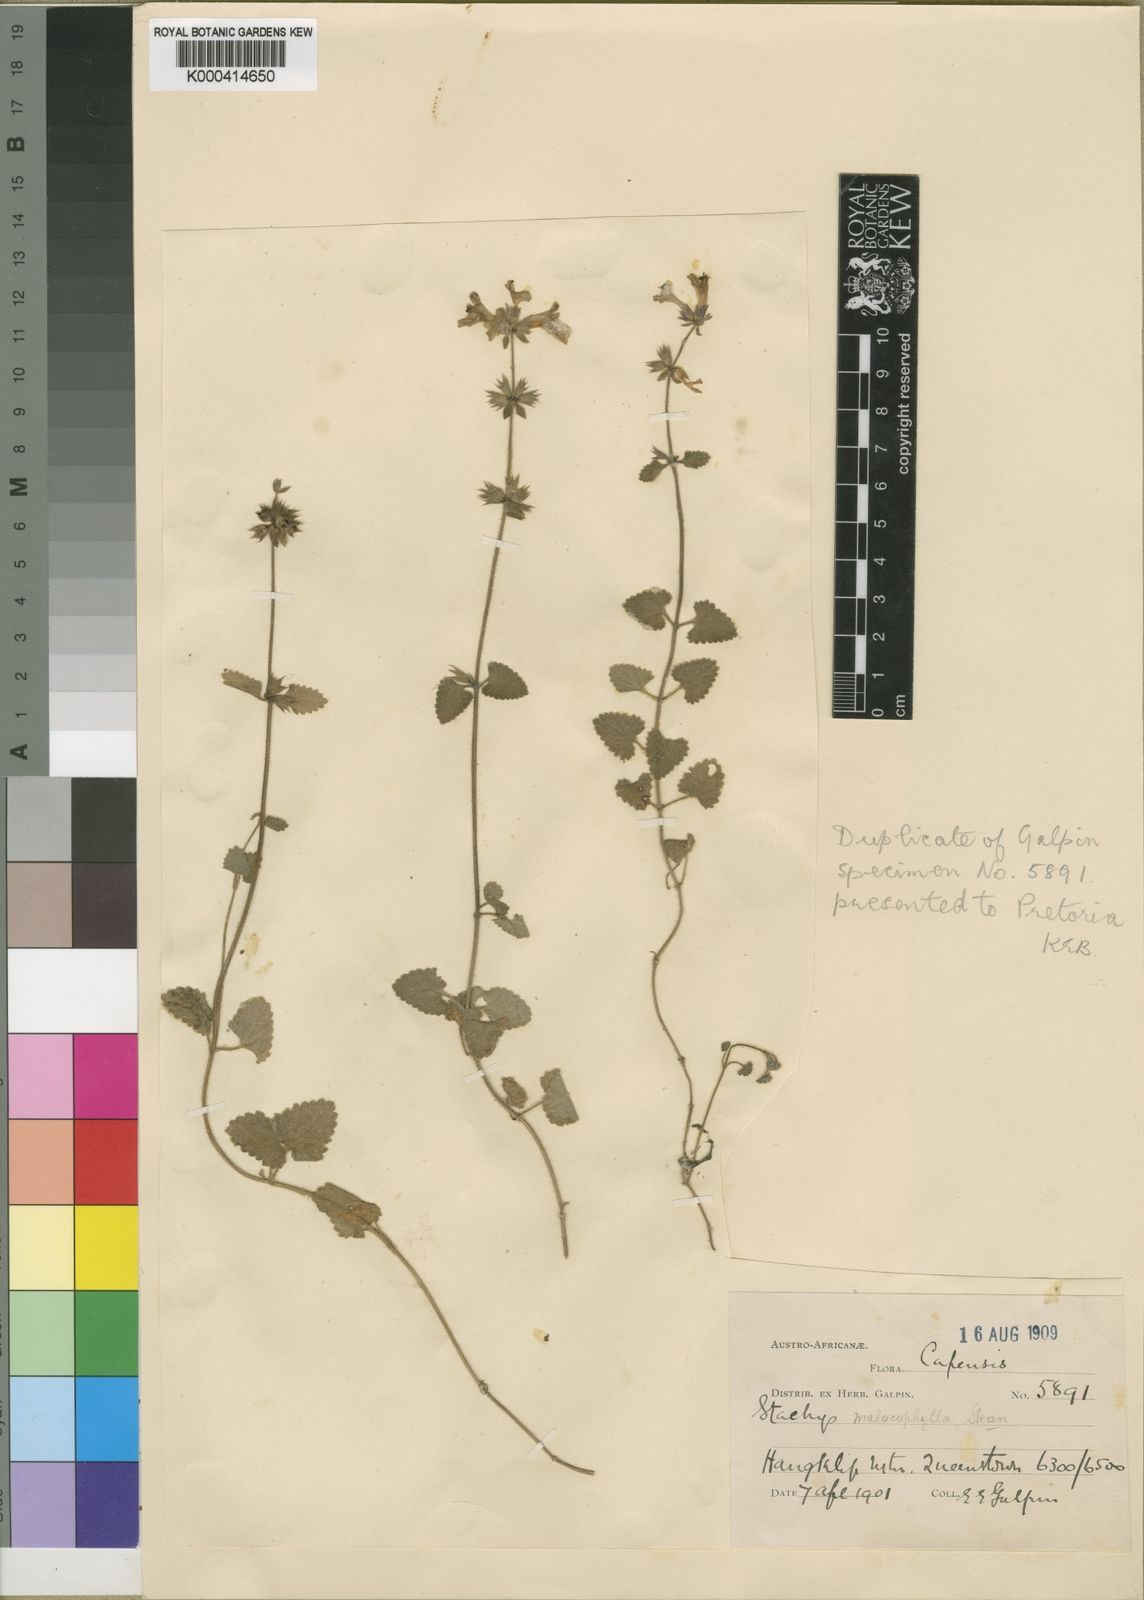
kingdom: Plantae
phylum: Tracheophyta
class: Magnoliopsida
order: Lamiales
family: Lamiaceae
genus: Stachys
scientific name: Stachys malacophylla
